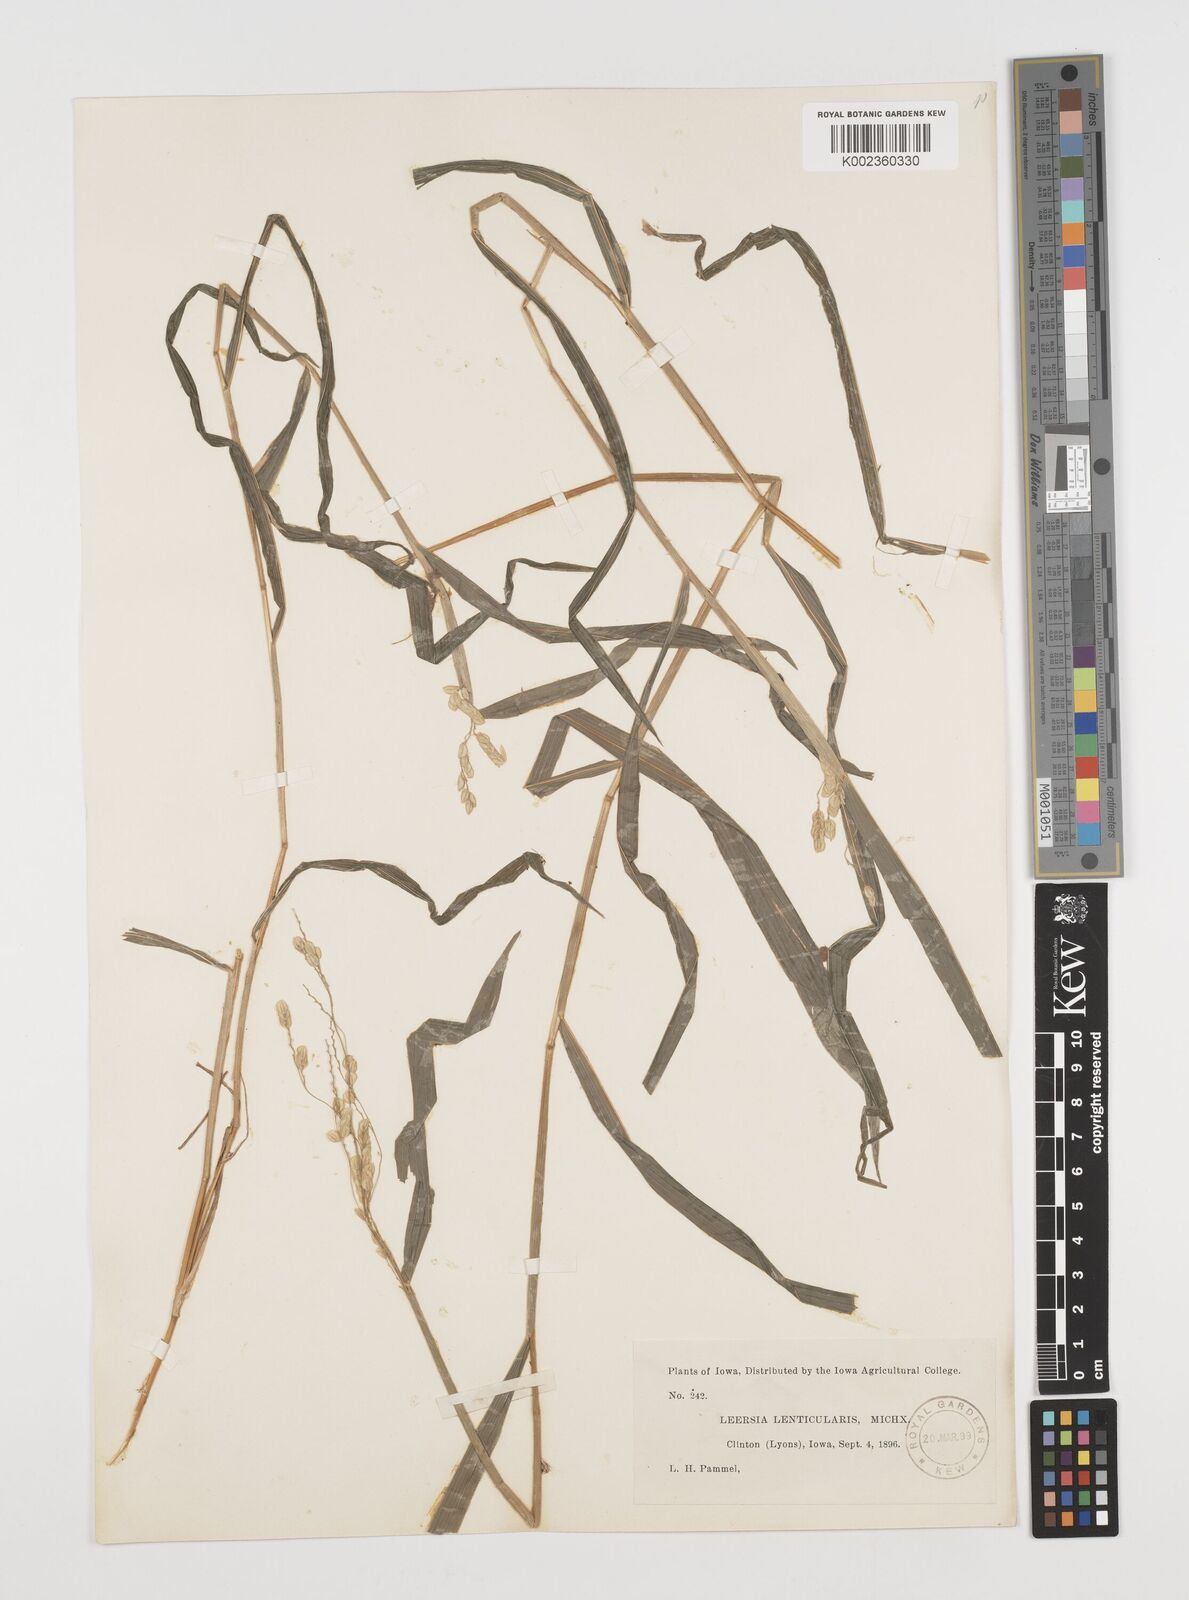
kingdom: Plantae
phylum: Tracheophyta
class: Liliopsida
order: Poales
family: Poaceae
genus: Leersia
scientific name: Leersia lenticularis
